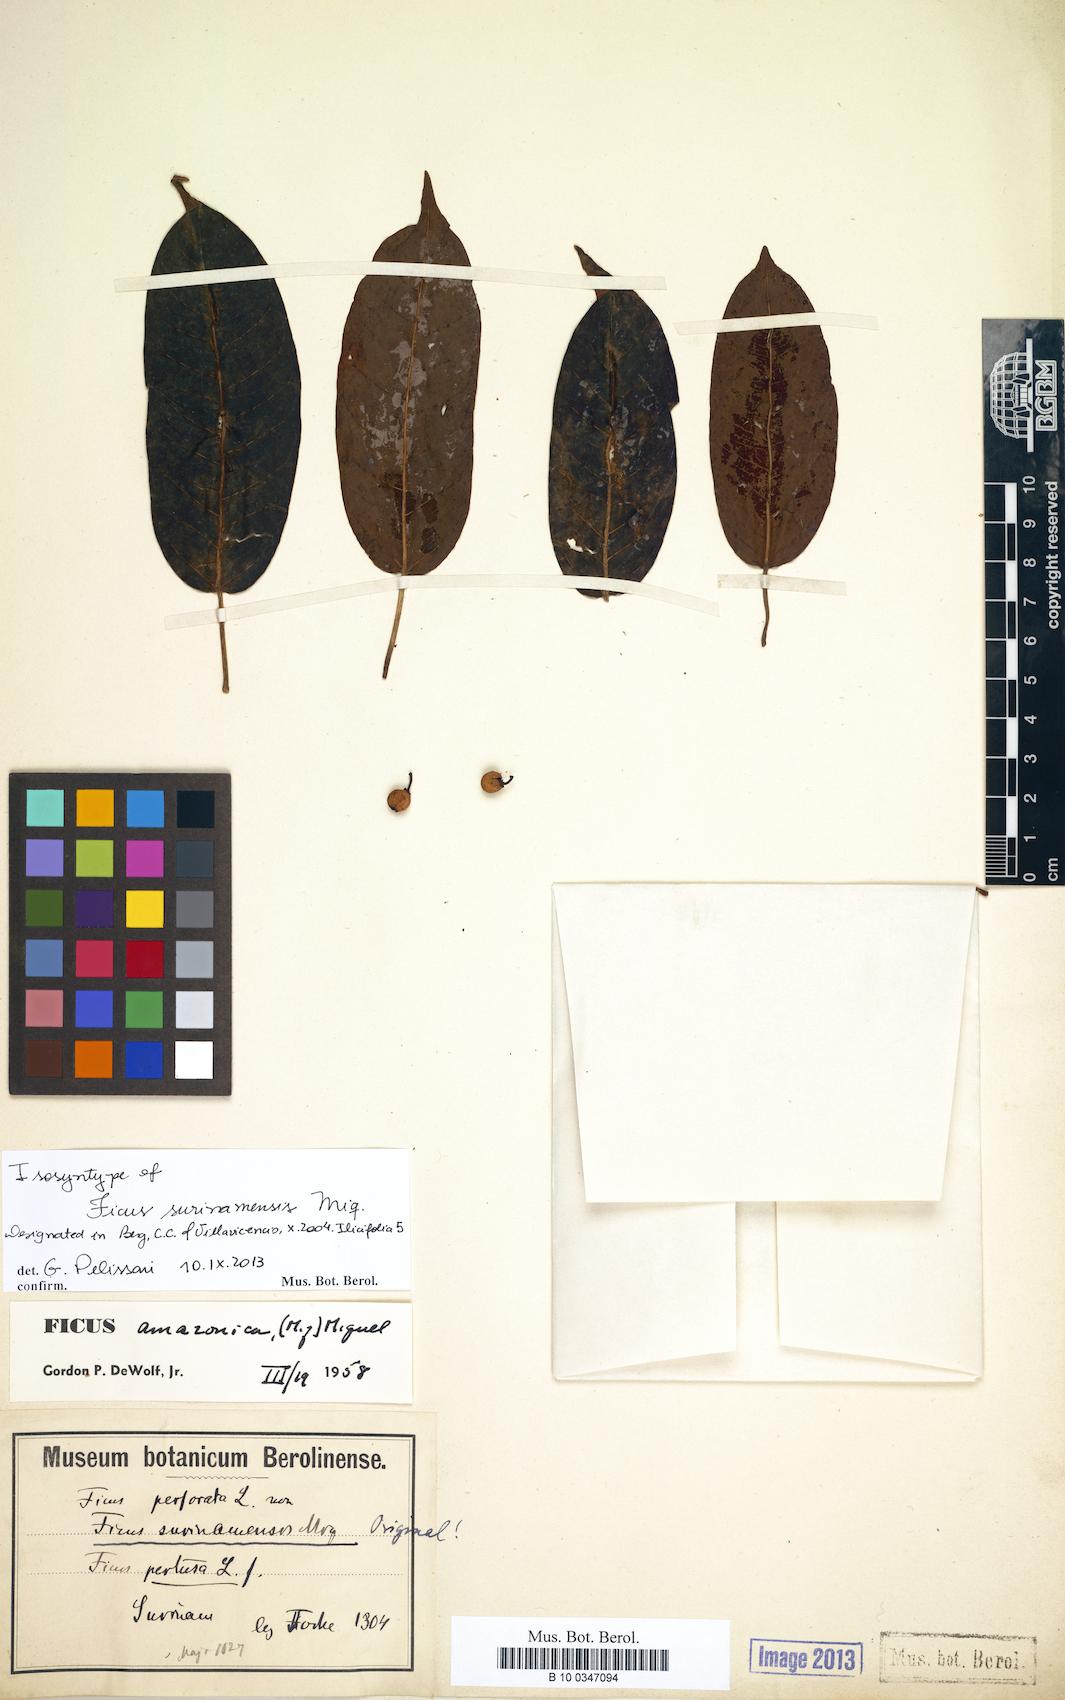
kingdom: Plantae
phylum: Tracheophyta
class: Magnoliopsida
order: Rosales
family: Moraceae
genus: Ficus
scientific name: Ficus amazonica
